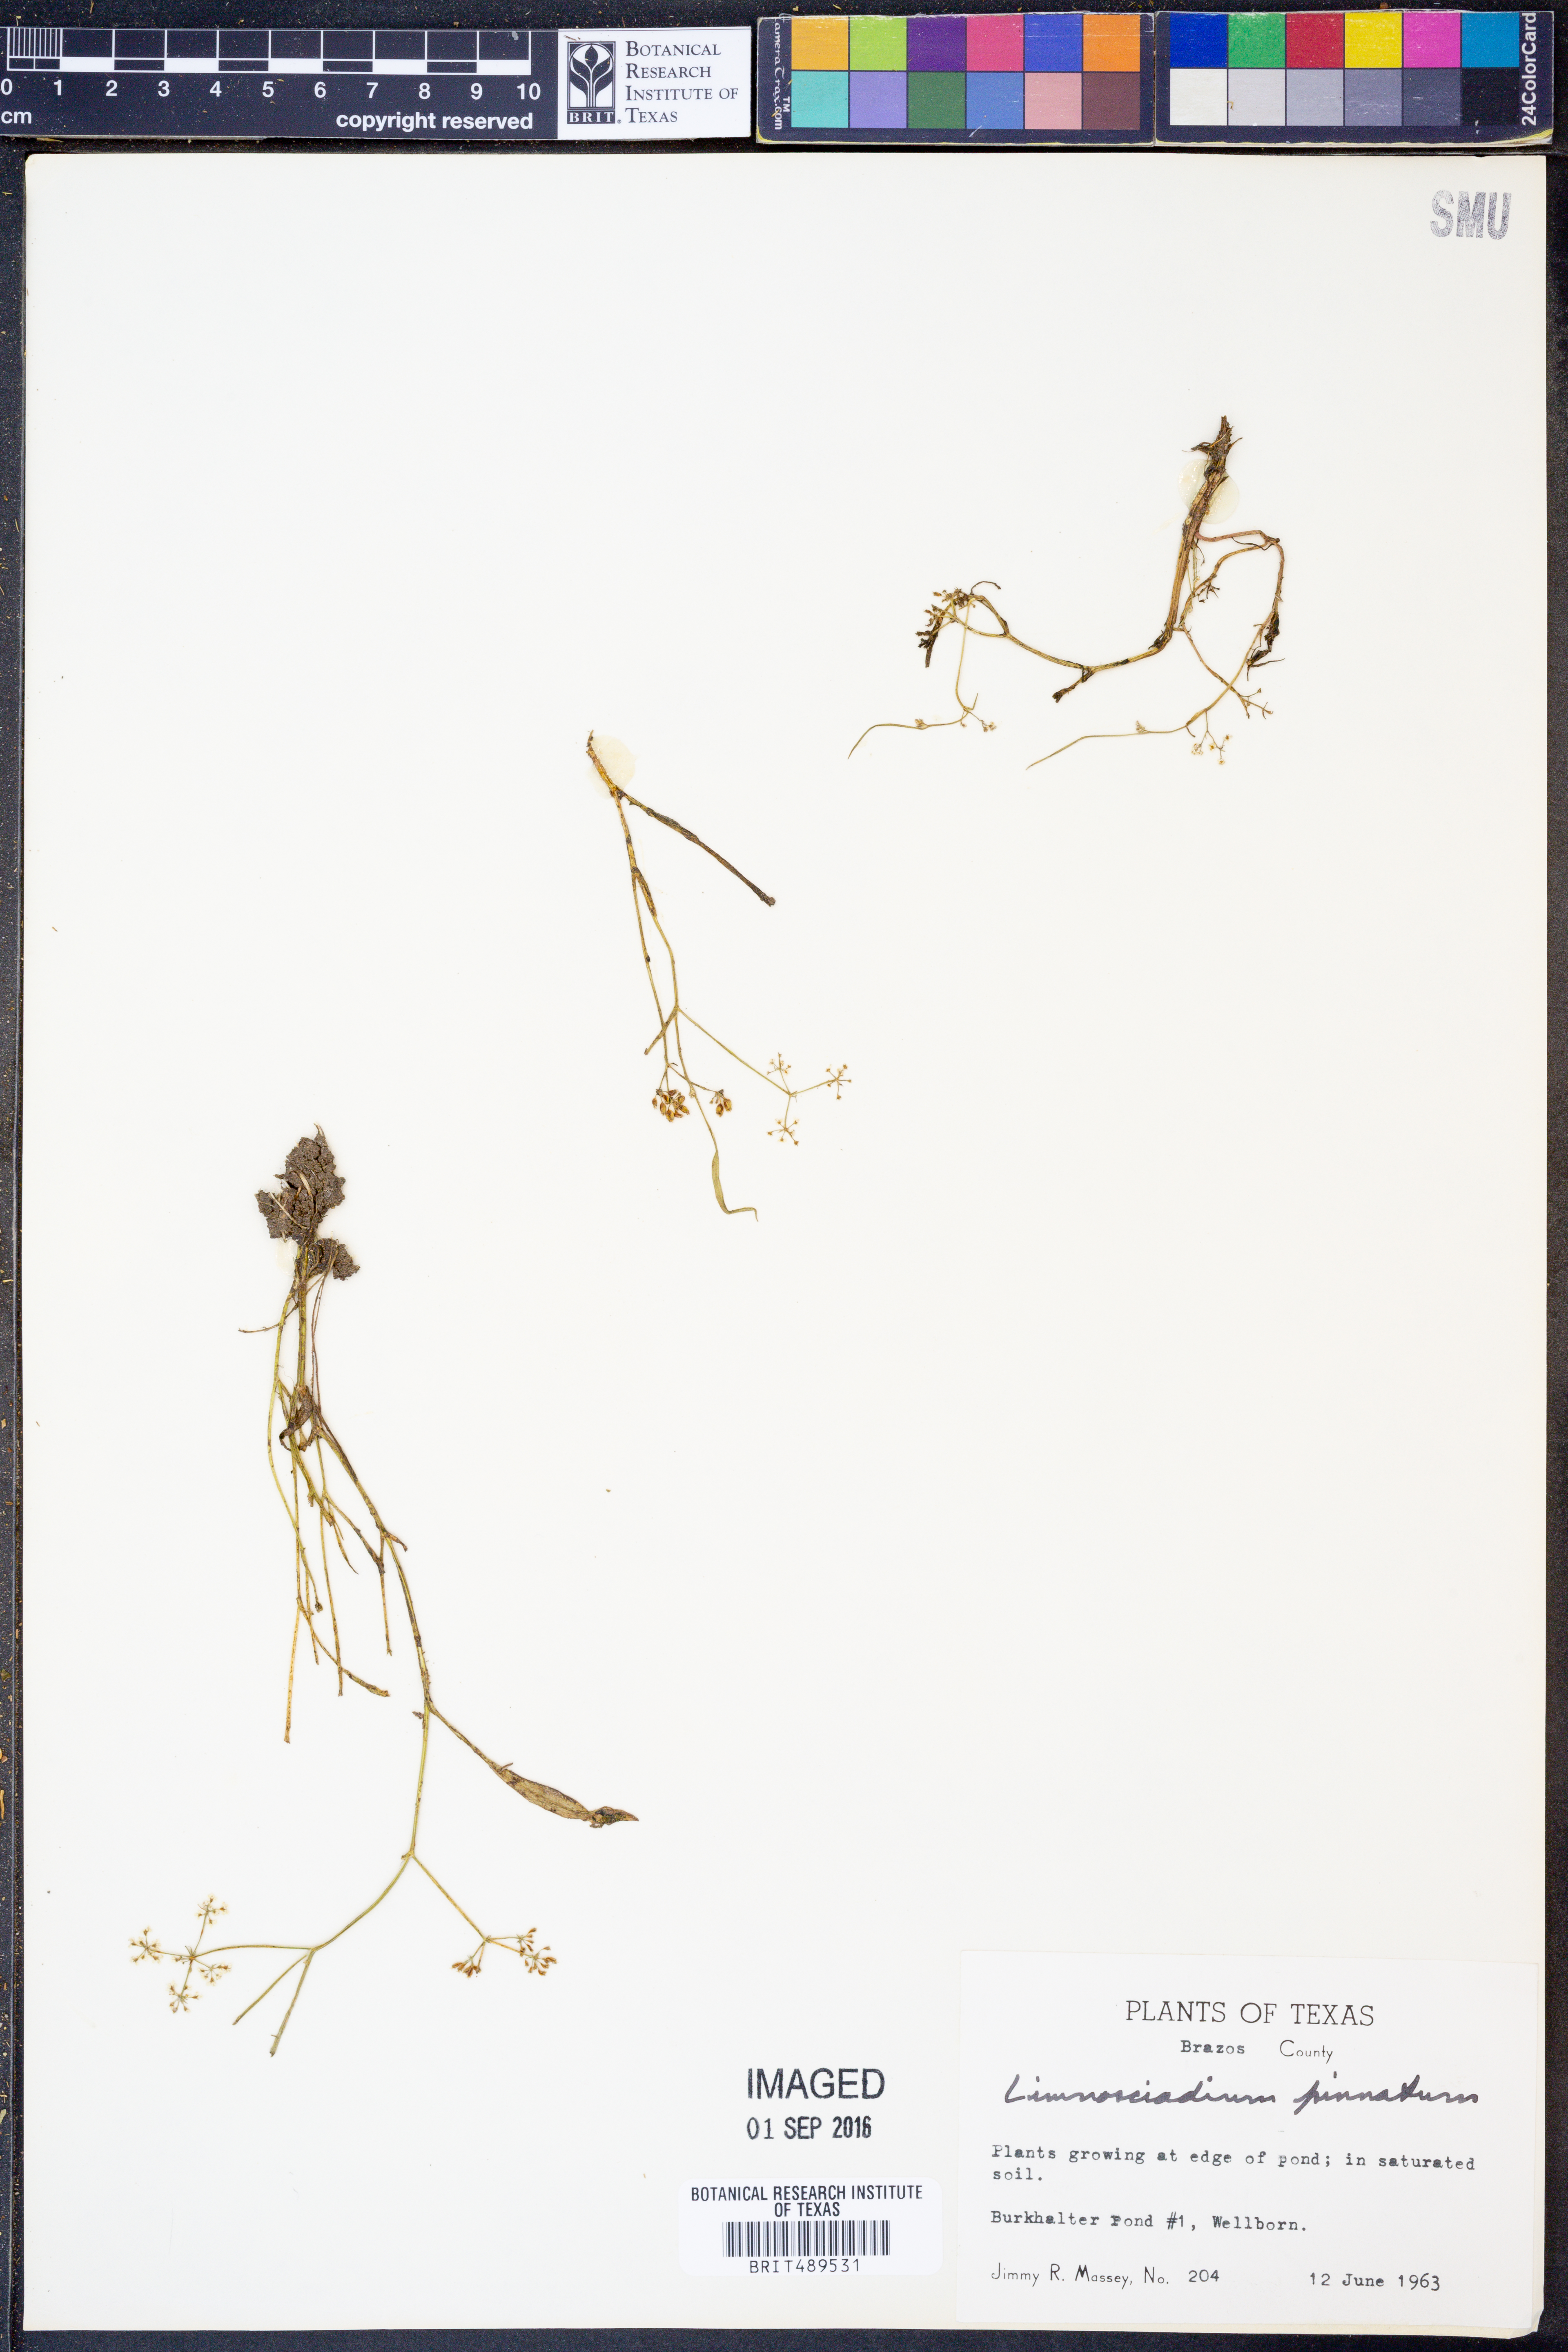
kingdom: Plantae
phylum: Tracheophyta
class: Magnoliopsida
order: Apiales
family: Apiaceae
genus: Limnosciadium
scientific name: Limnosciadium pinnatum
